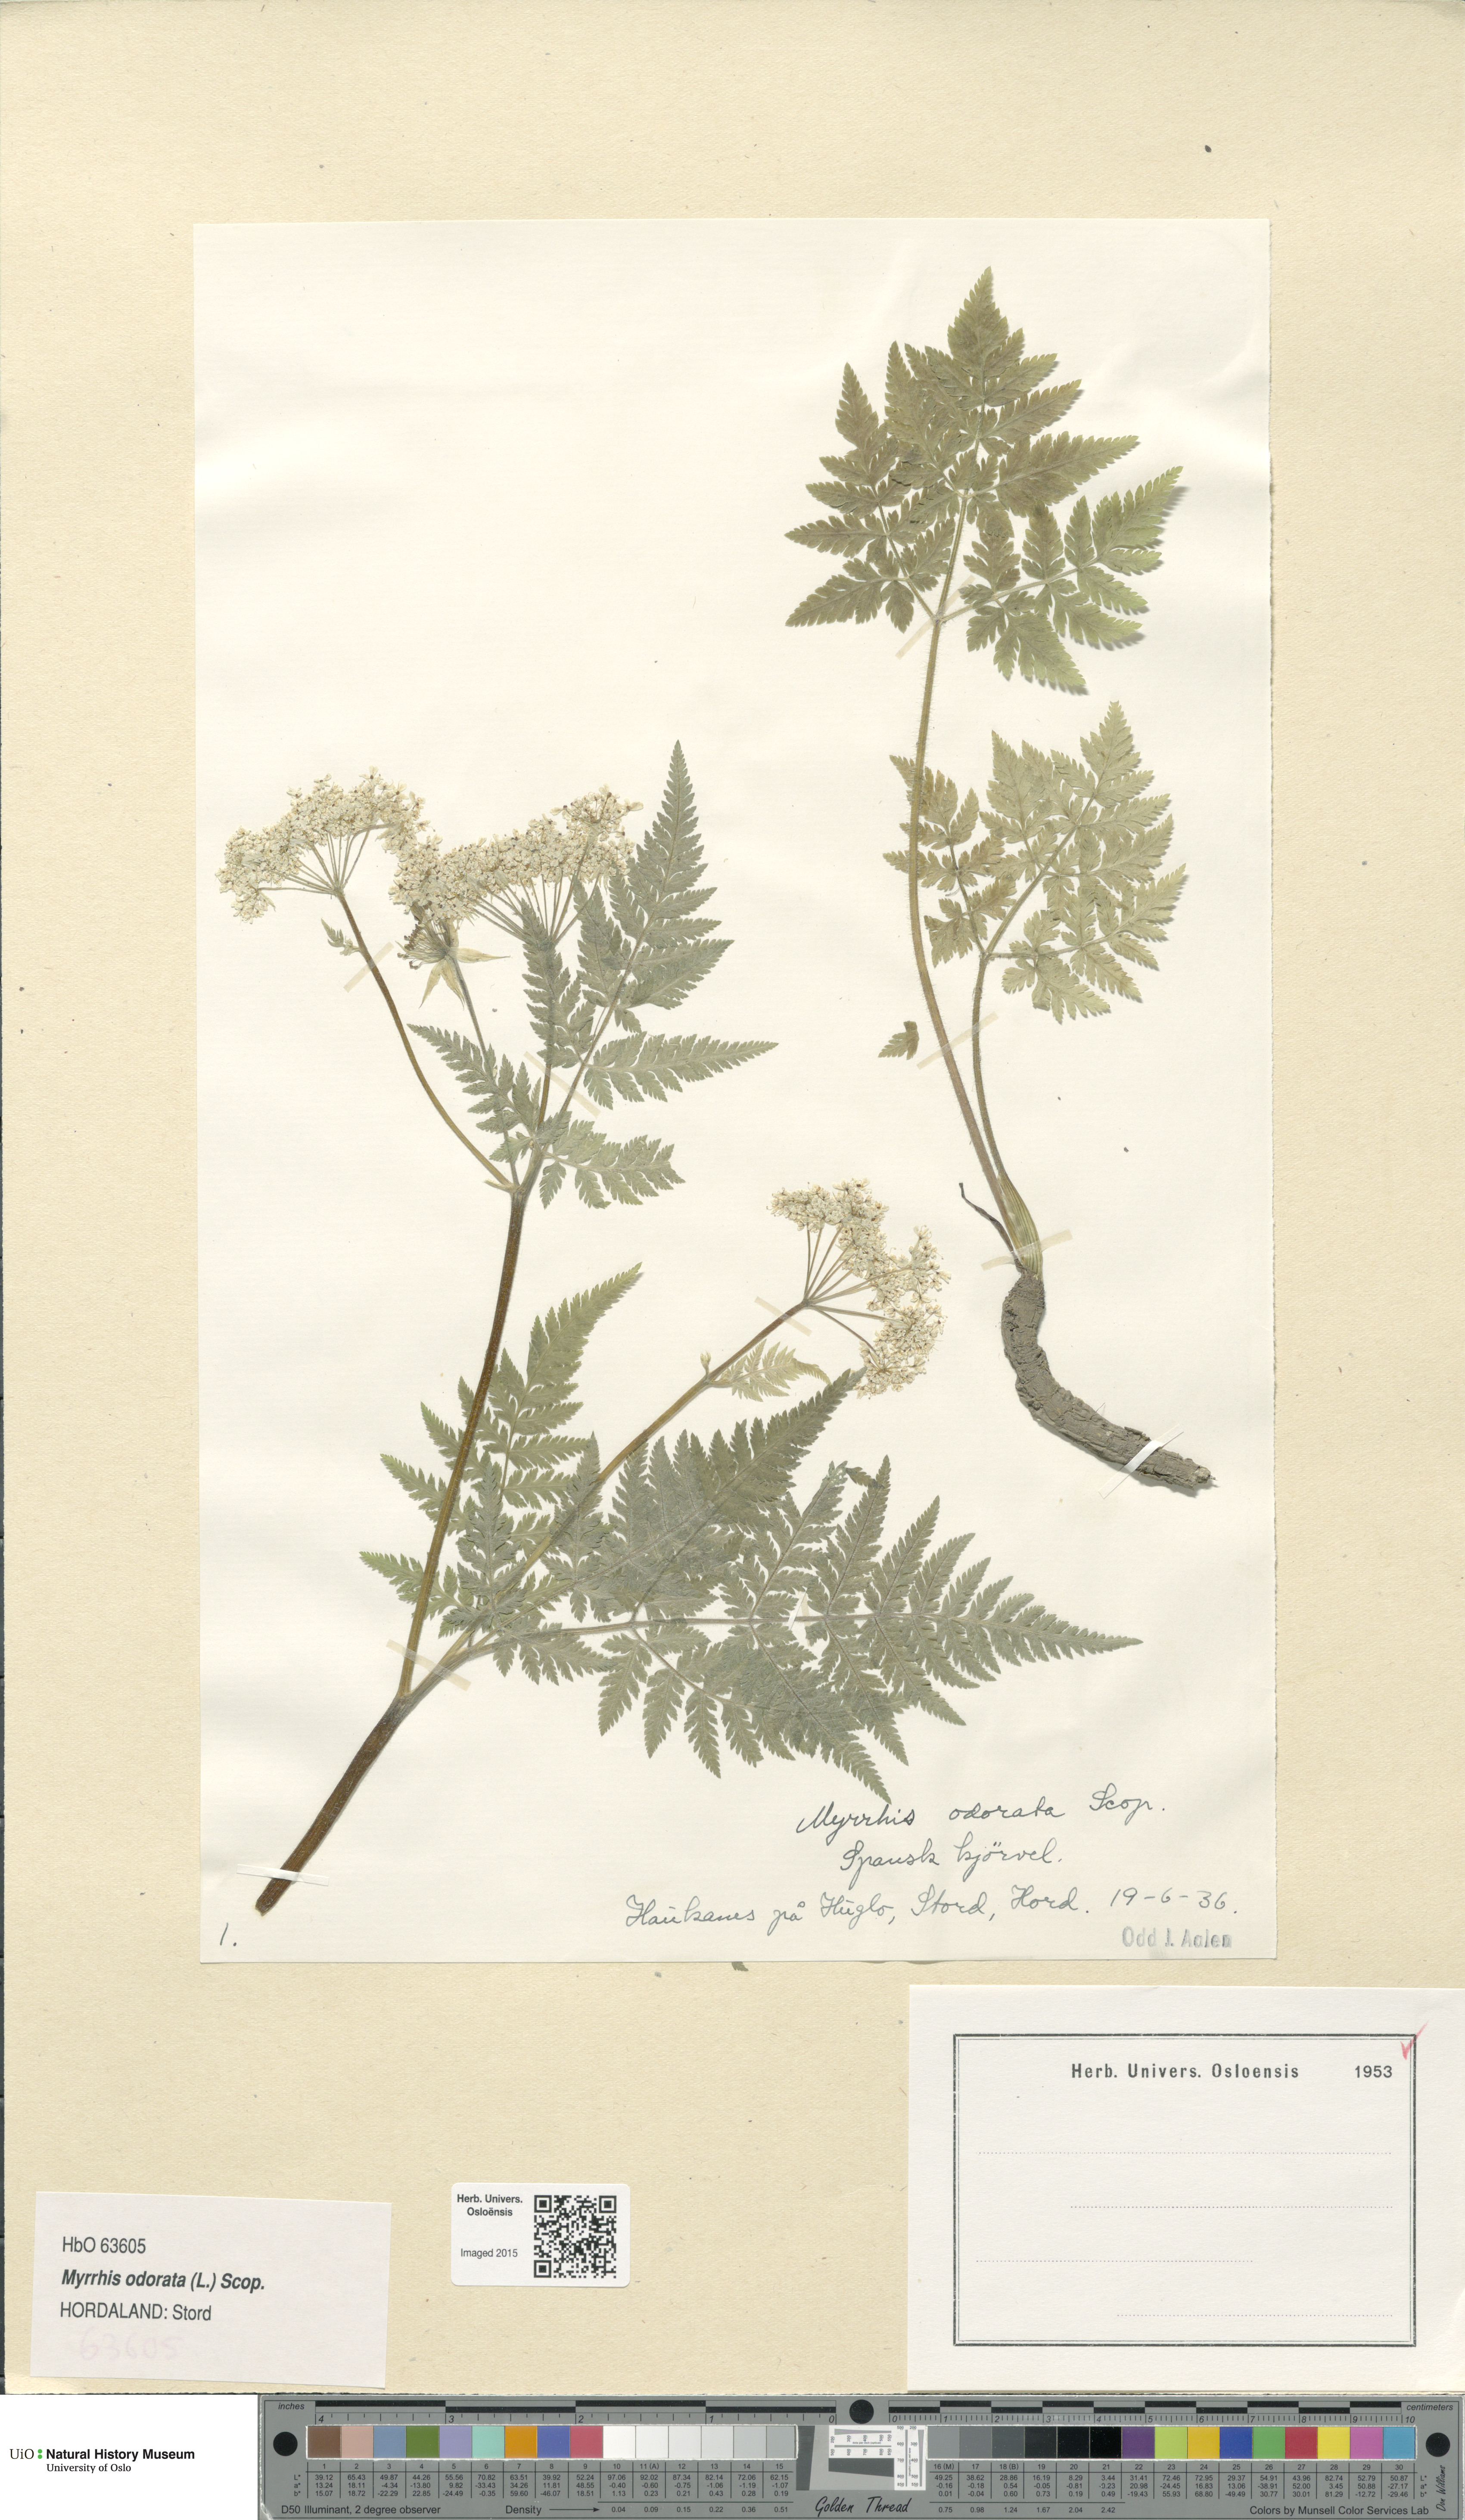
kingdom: Plantae
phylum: Tracheophyta
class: Magnoliopsida
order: Apiales
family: Apiaceae
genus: Myrrhis
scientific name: Myrrhis odorata
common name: Sweet cicely
